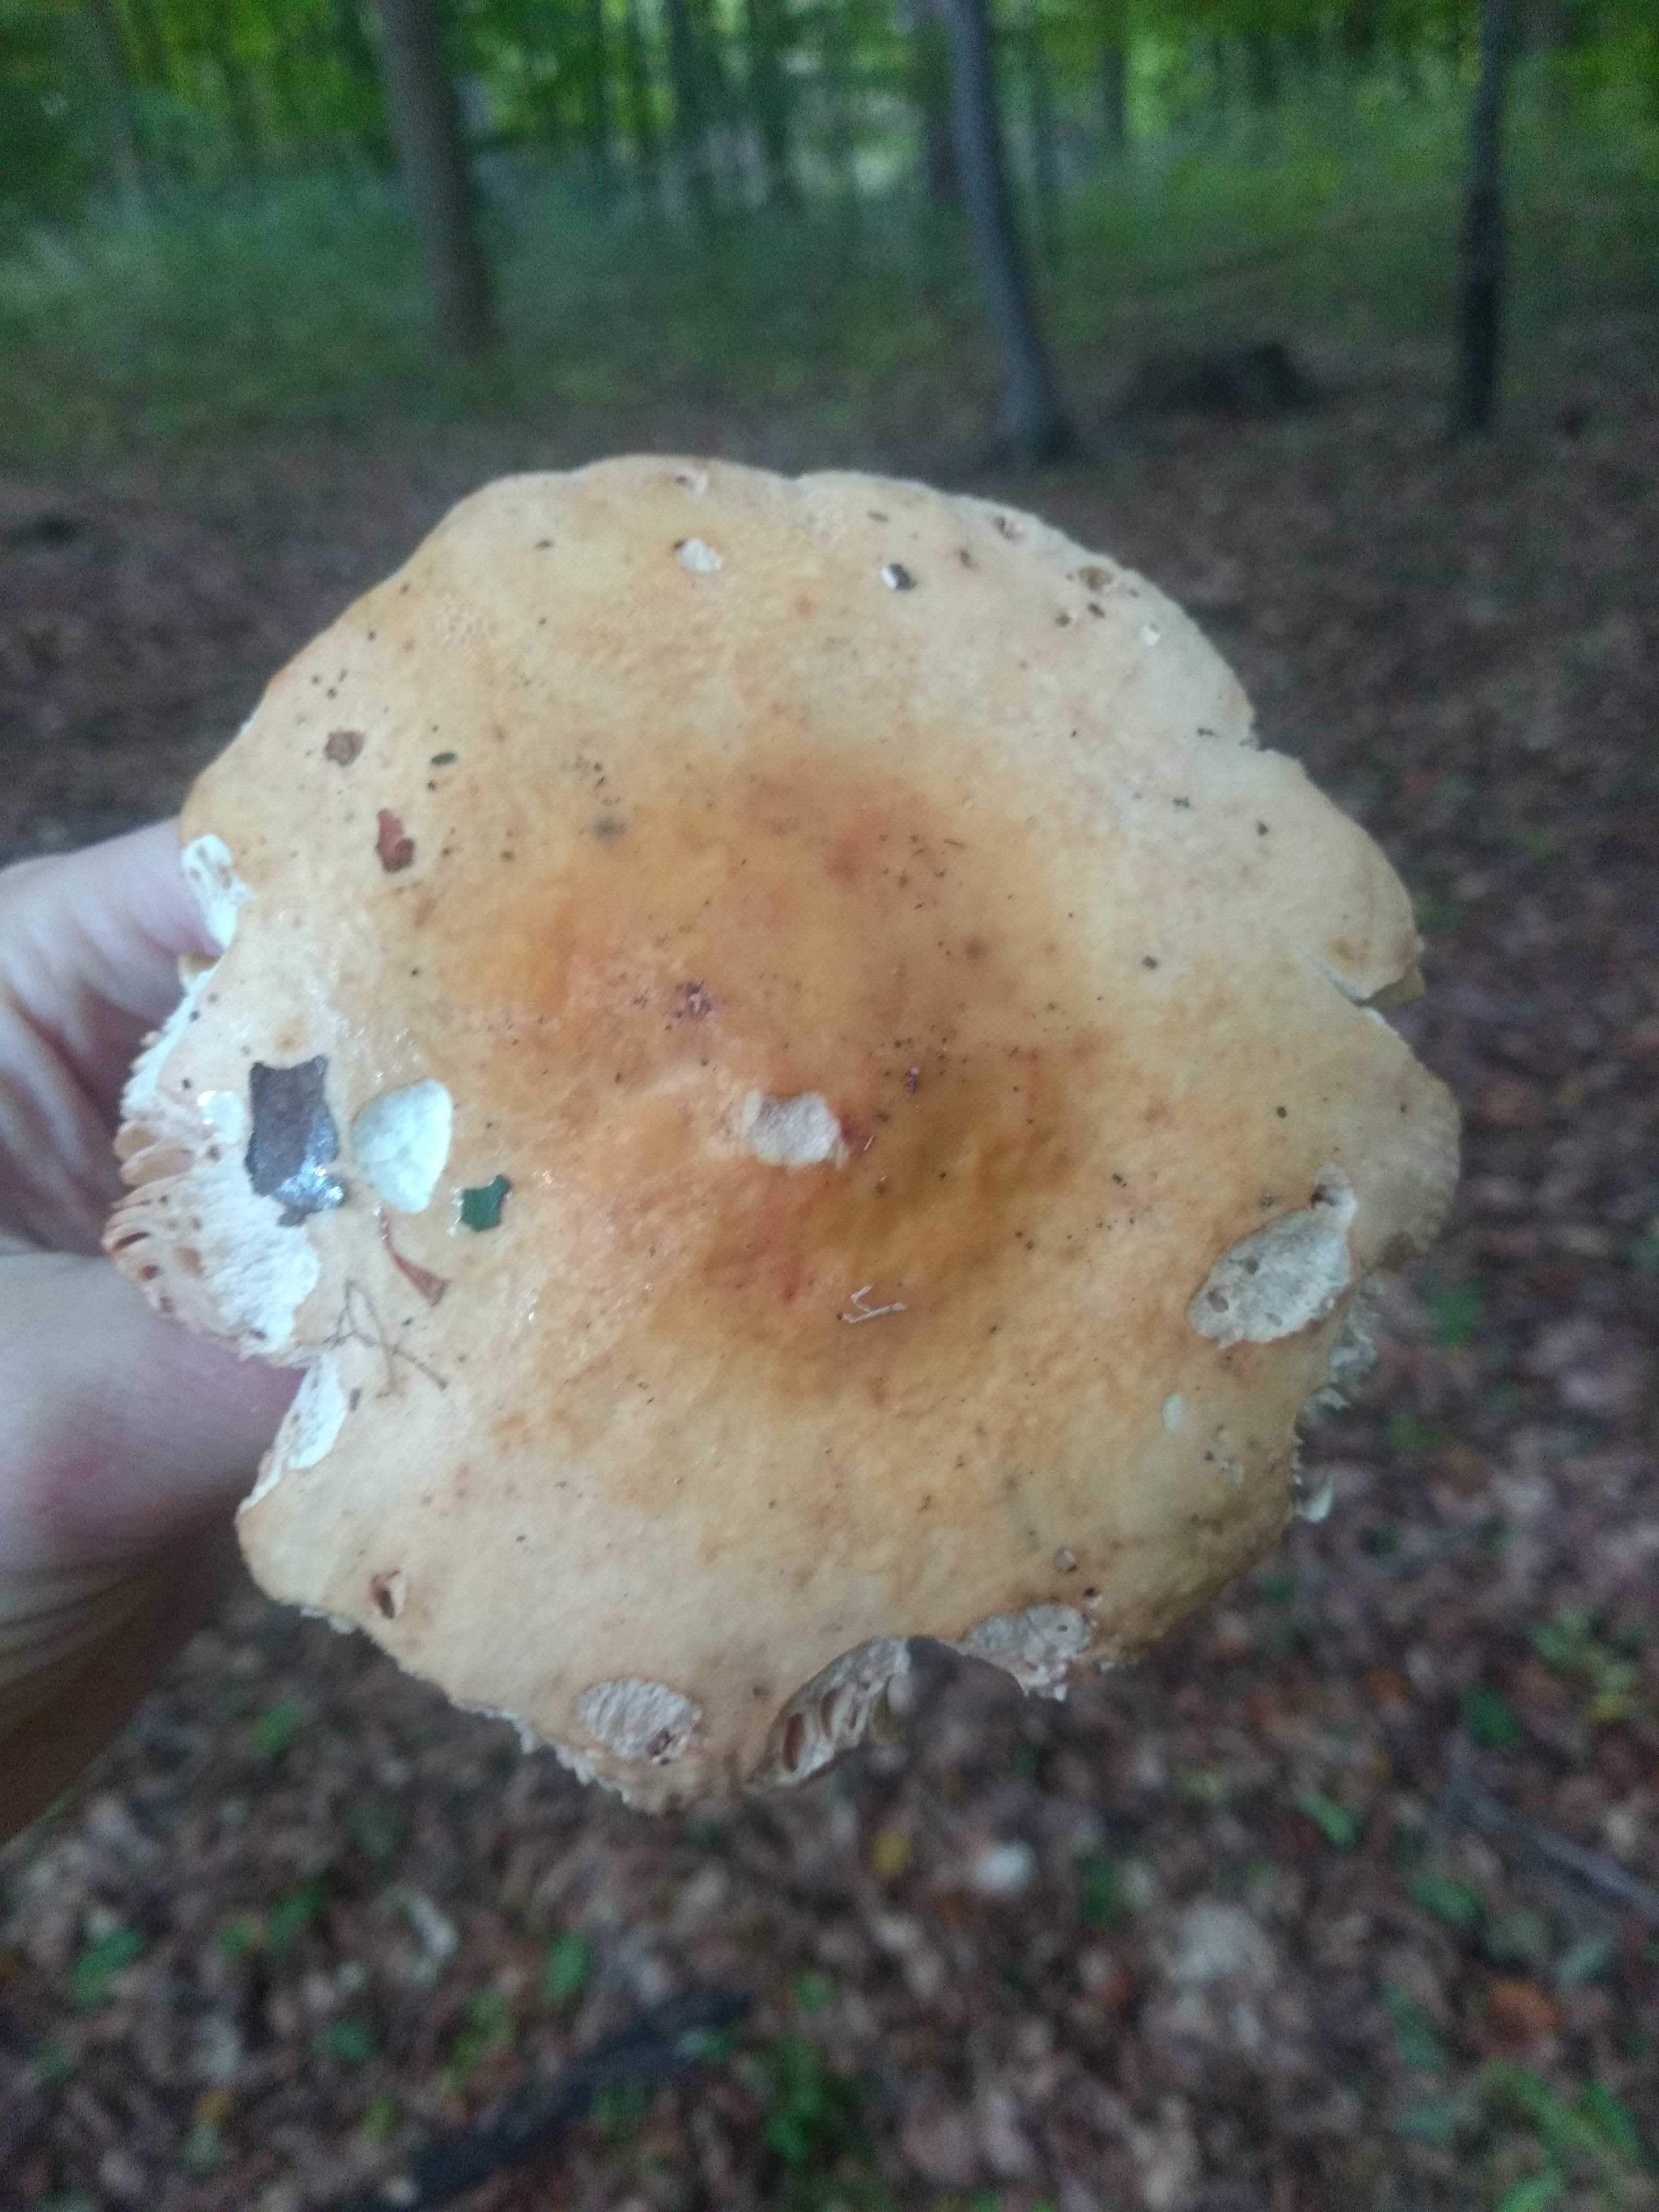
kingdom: Fungi
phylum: Basidiomycota
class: Agaricomycetes
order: Russulales
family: Russulaceae
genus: Russula
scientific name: Russula fellea
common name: galde-skørhat
